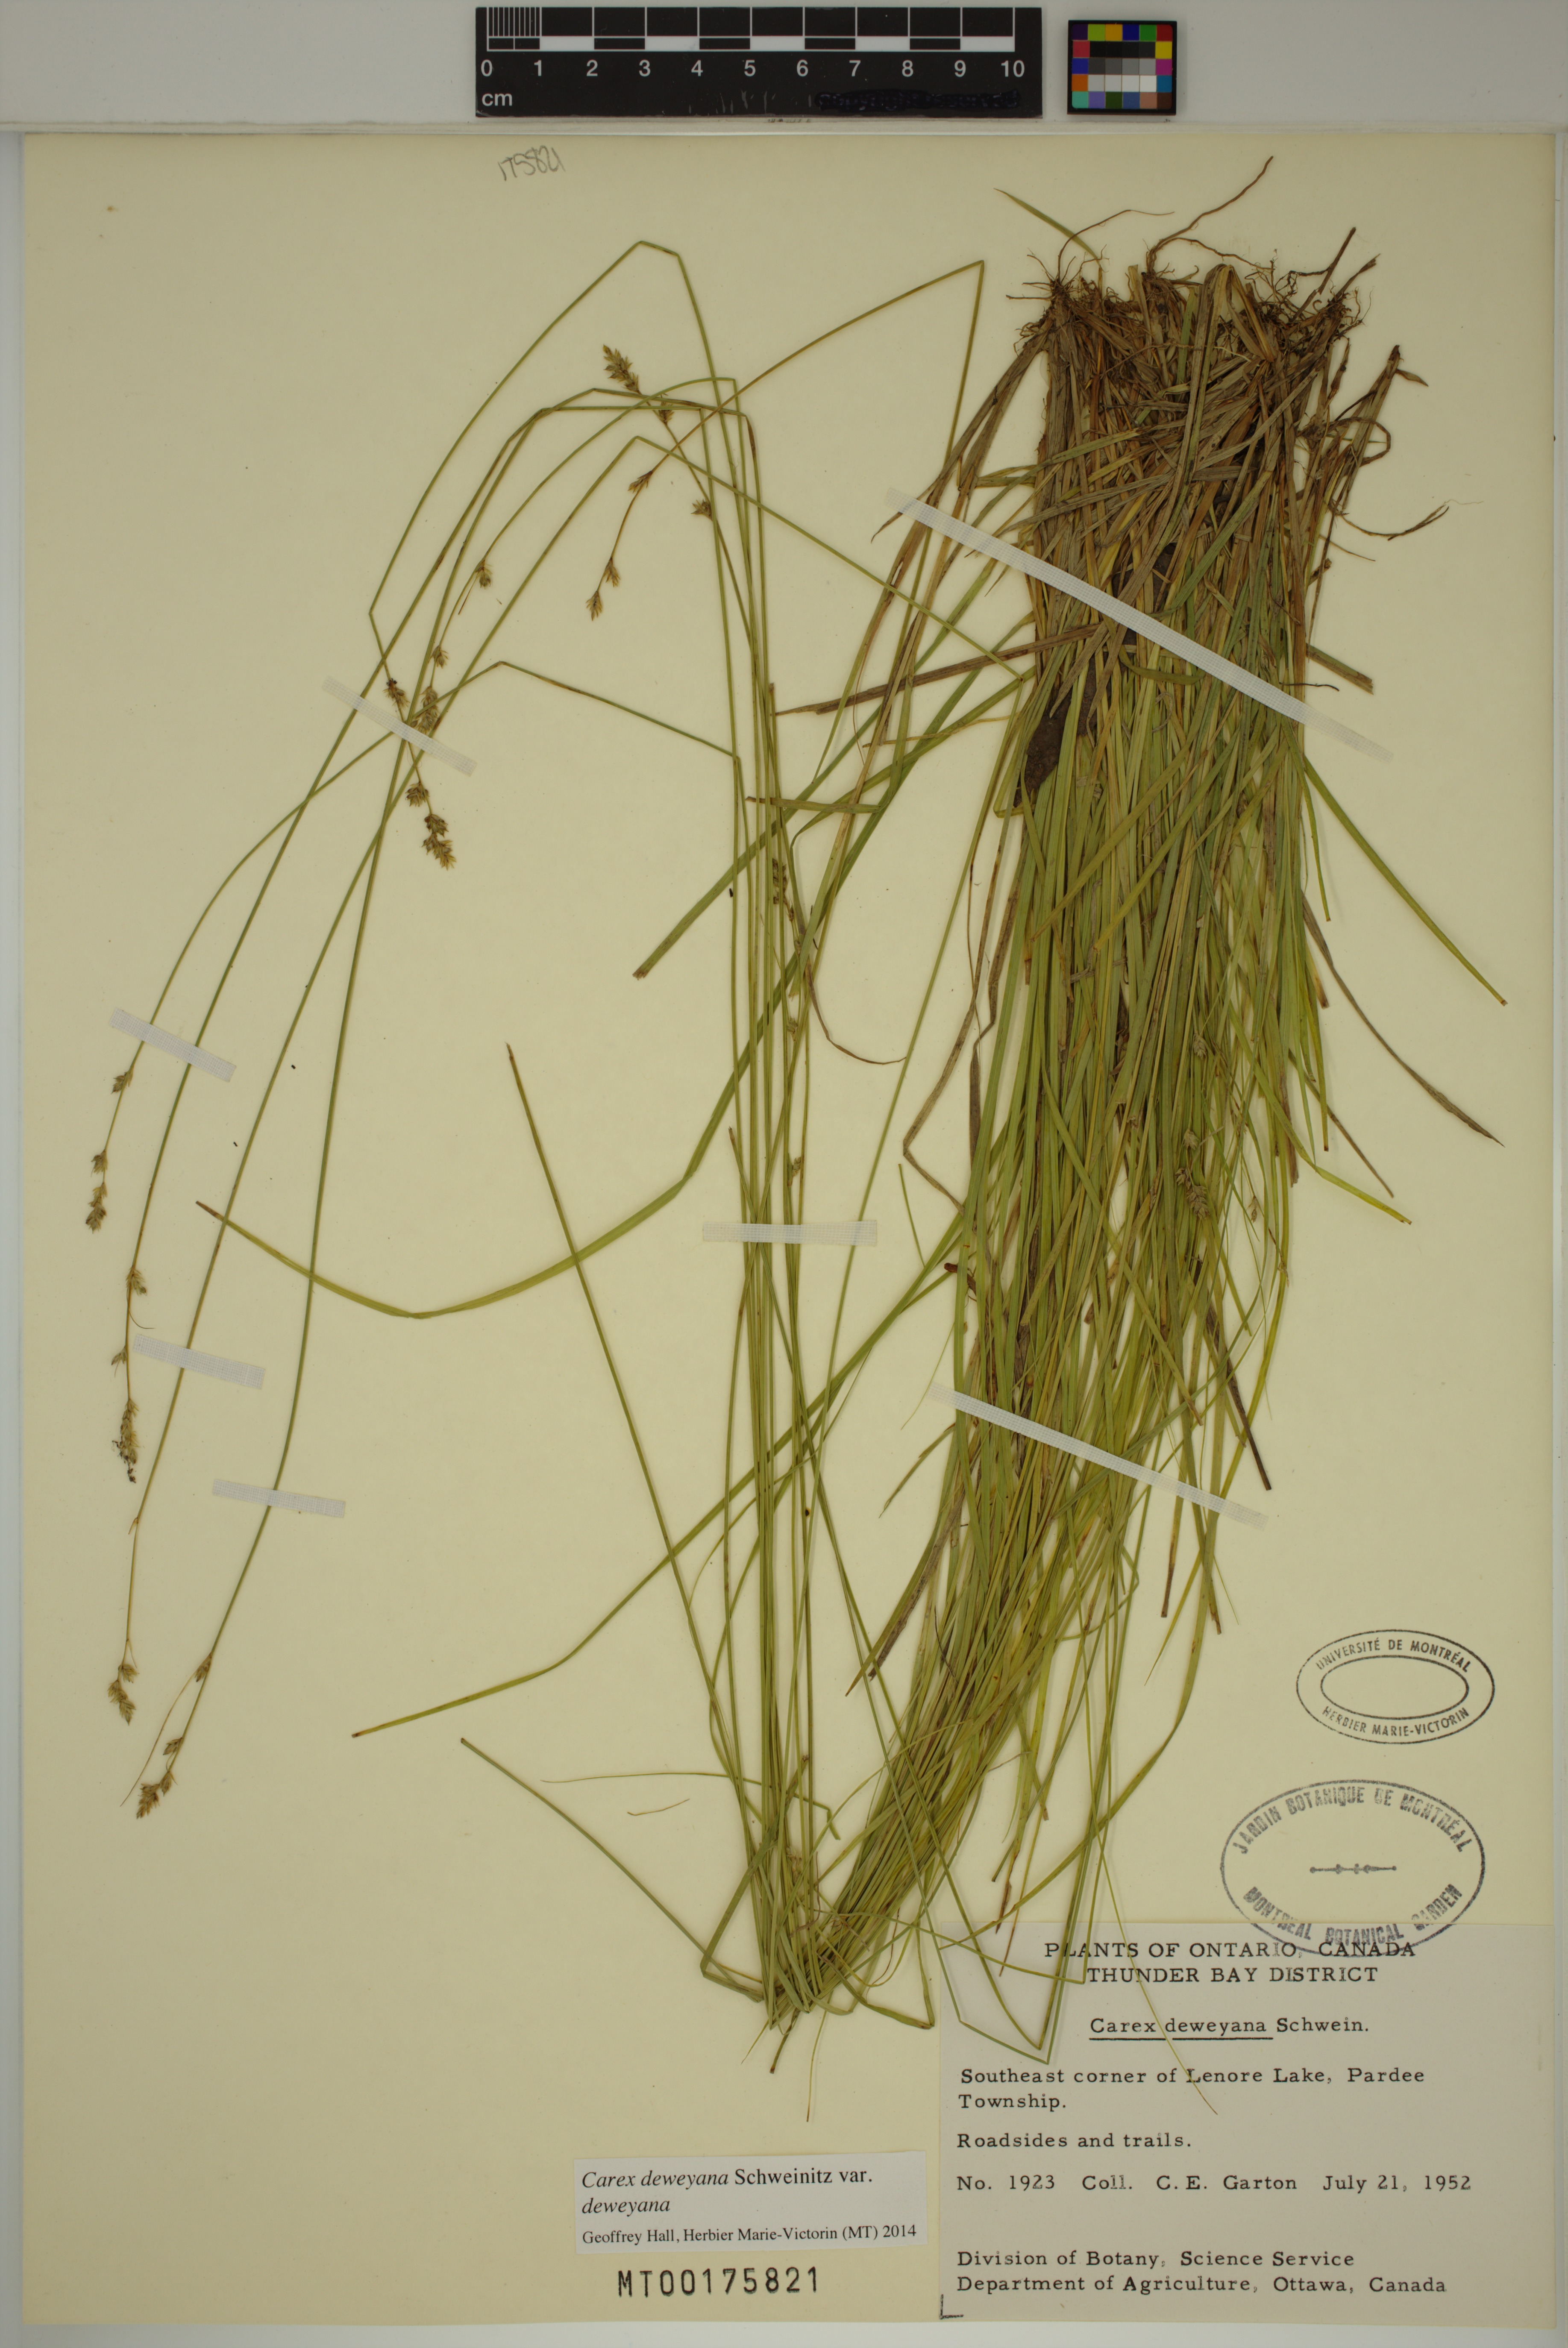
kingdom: Plantae
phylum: Tracheophyta
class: Liliopsida
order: Poales
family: Cyperaceae
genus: Carex
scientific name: Carex deweyana
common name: Dewey's sedge
